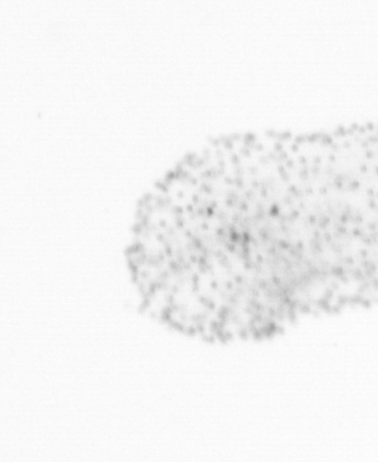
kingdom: Chromista
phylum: Ochrophyta
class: Bacillariophyceae
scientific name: Bacillariophyceae
